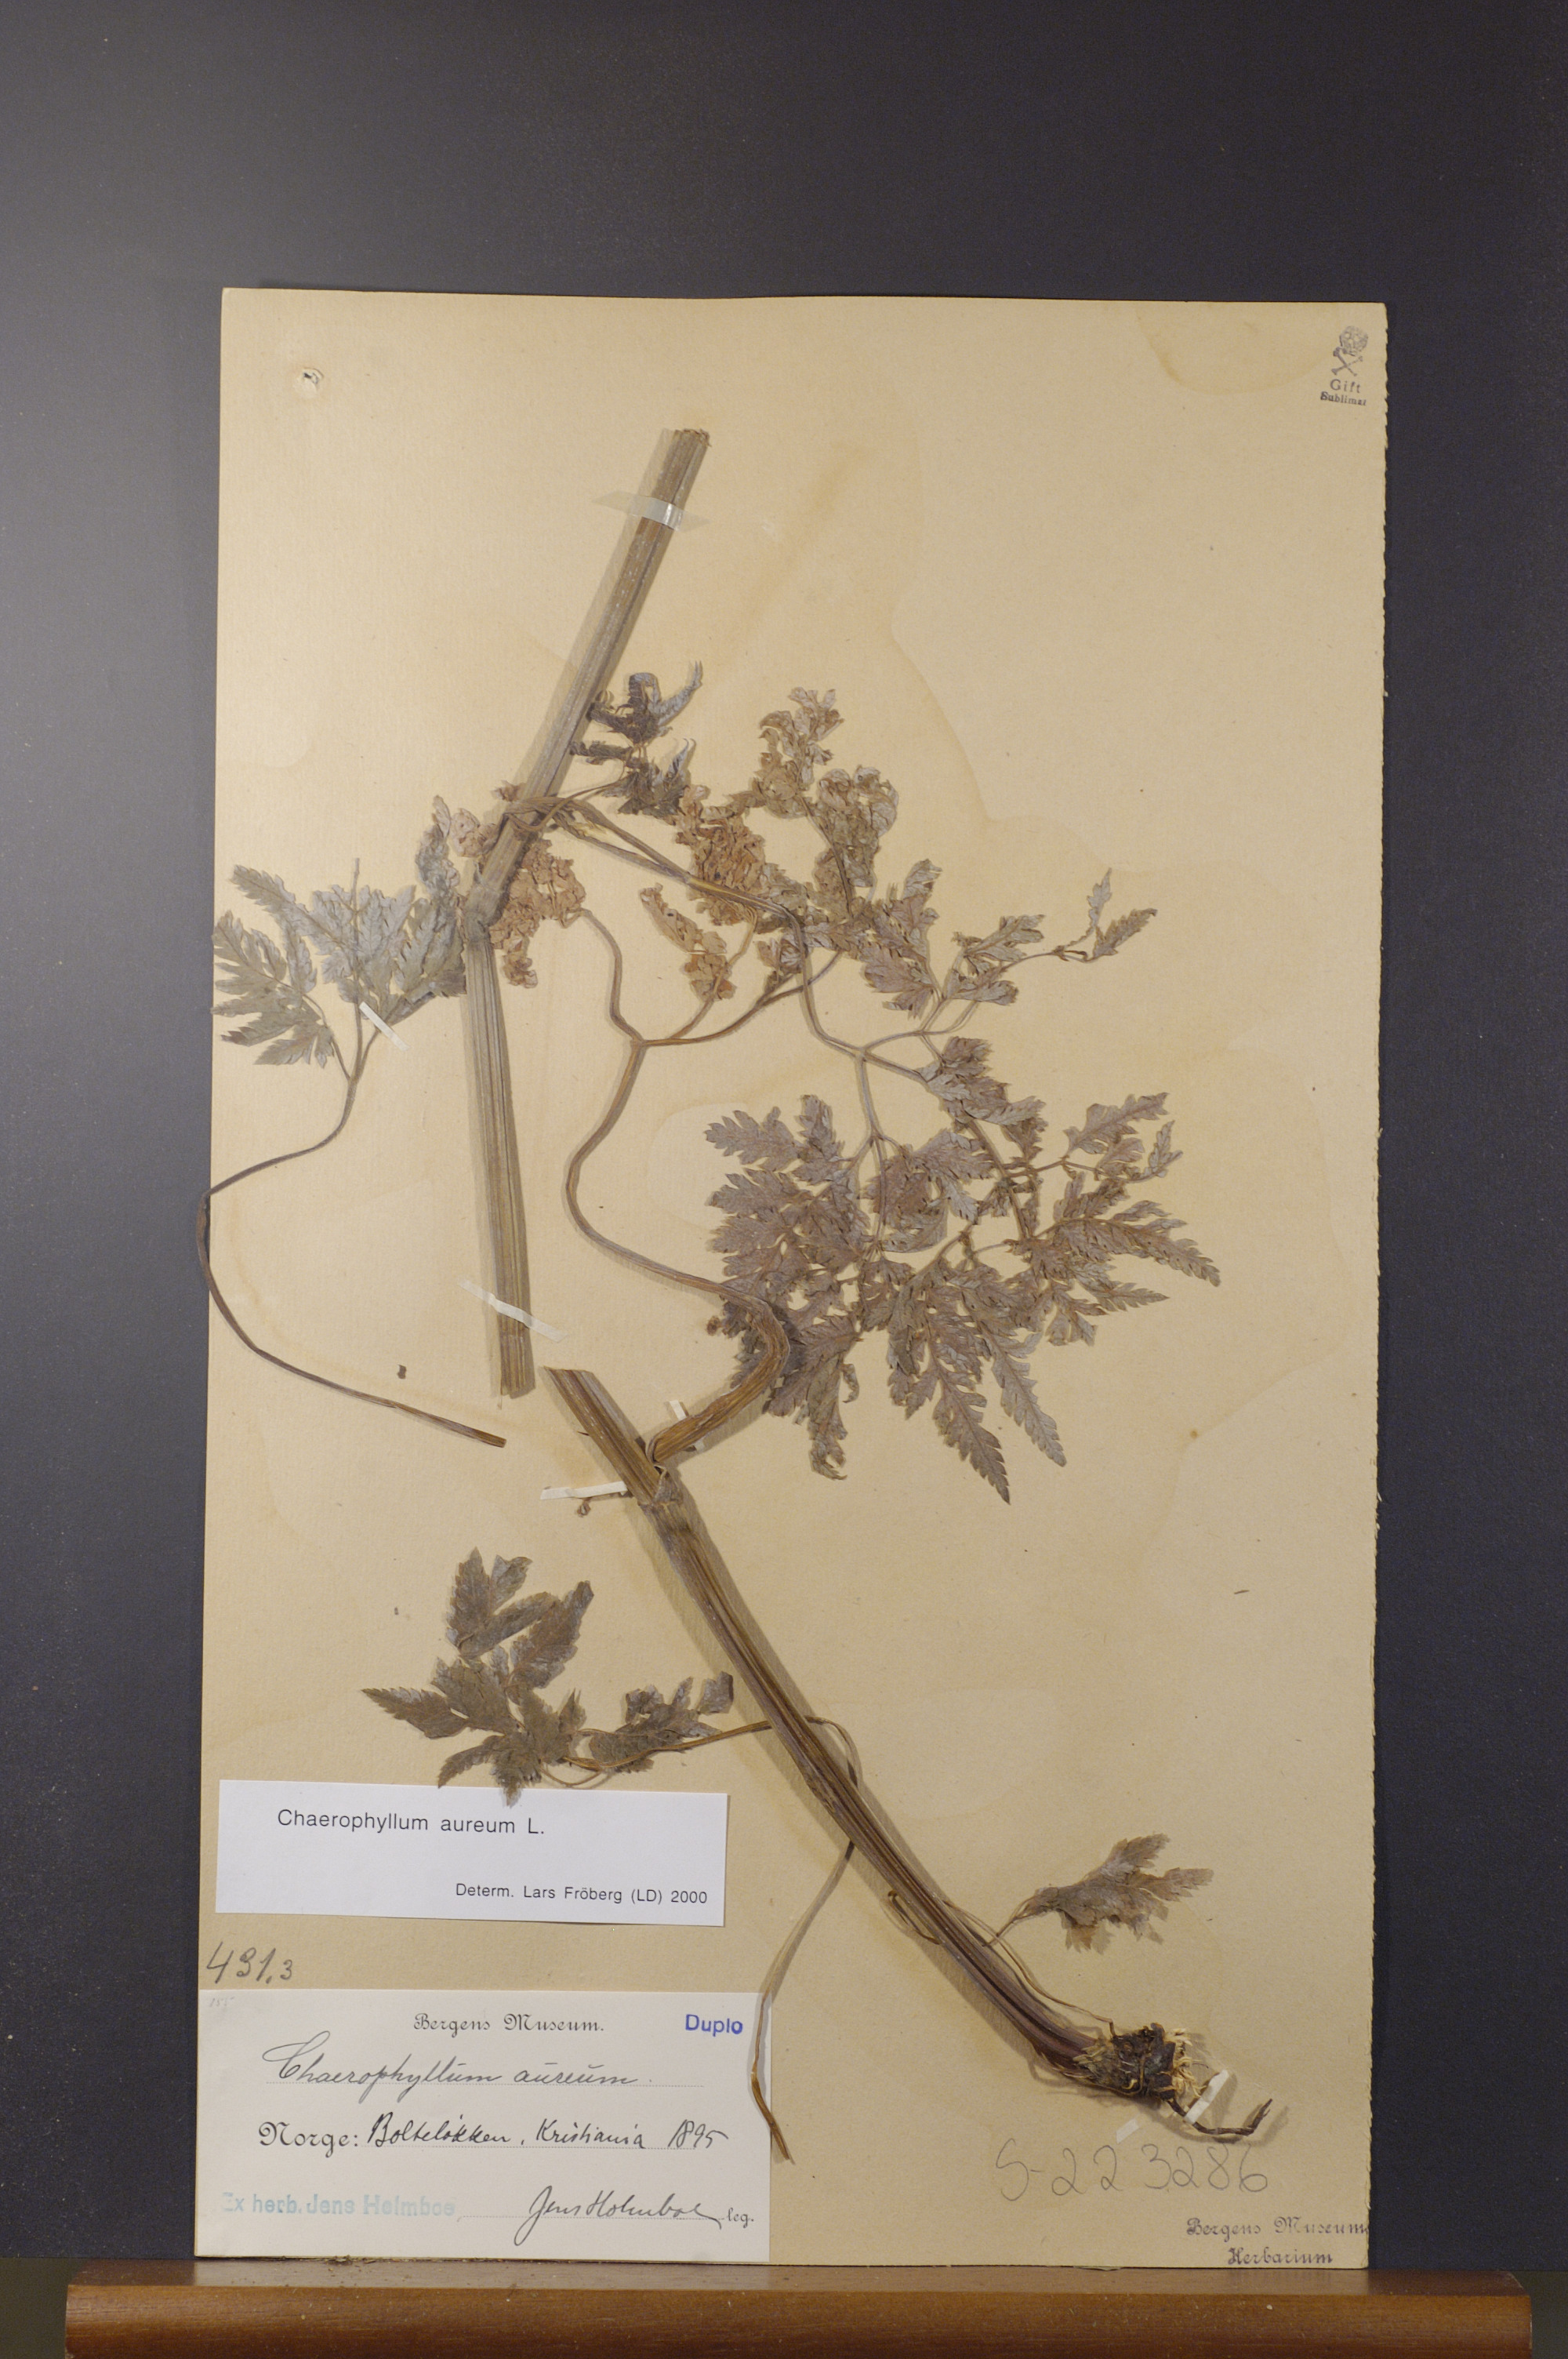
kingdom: Plantae
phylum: Tracheophyta
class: Magnoliopsida
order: Apiales
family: Apiaceae
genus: Chaerophyllum
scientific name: Chaerophyllum aureum
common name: Golden chervil
